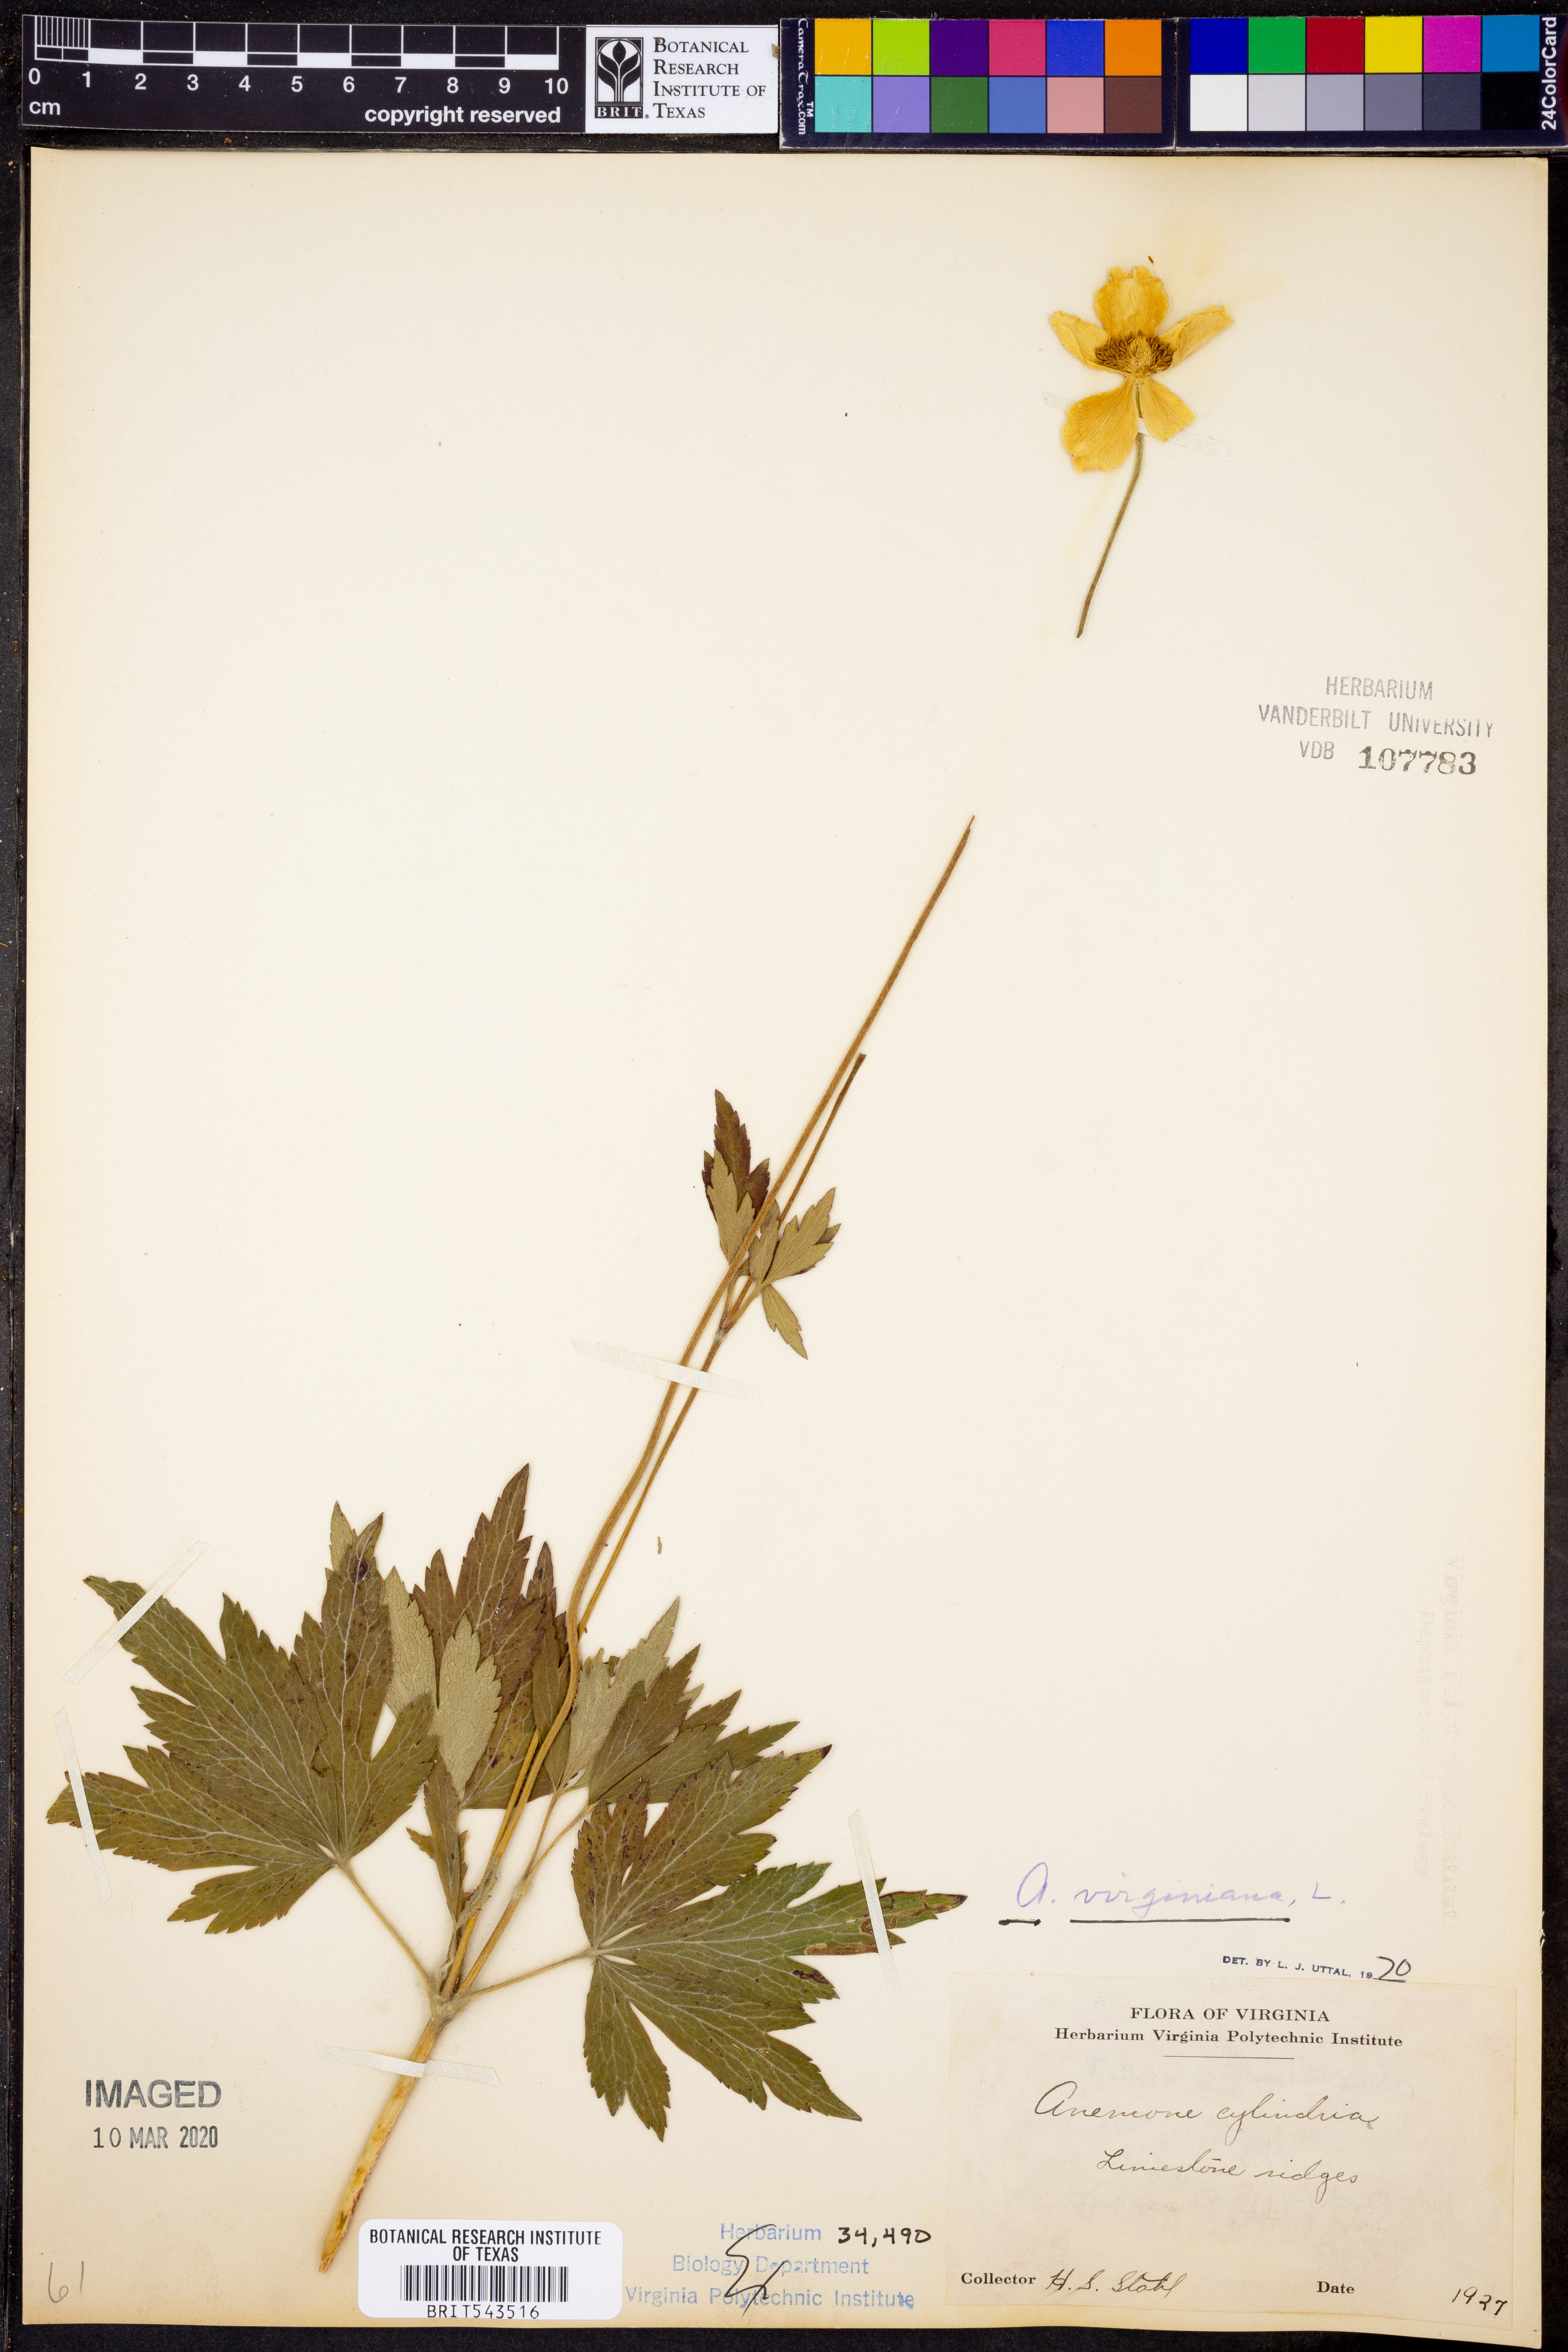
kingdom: Plantae
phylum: Tracheophyta
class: Magnoliopsida
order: Ranunculales
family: Ranunculaceae
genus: Anemone
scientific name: Anemone virginiana
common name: Tall anemone
